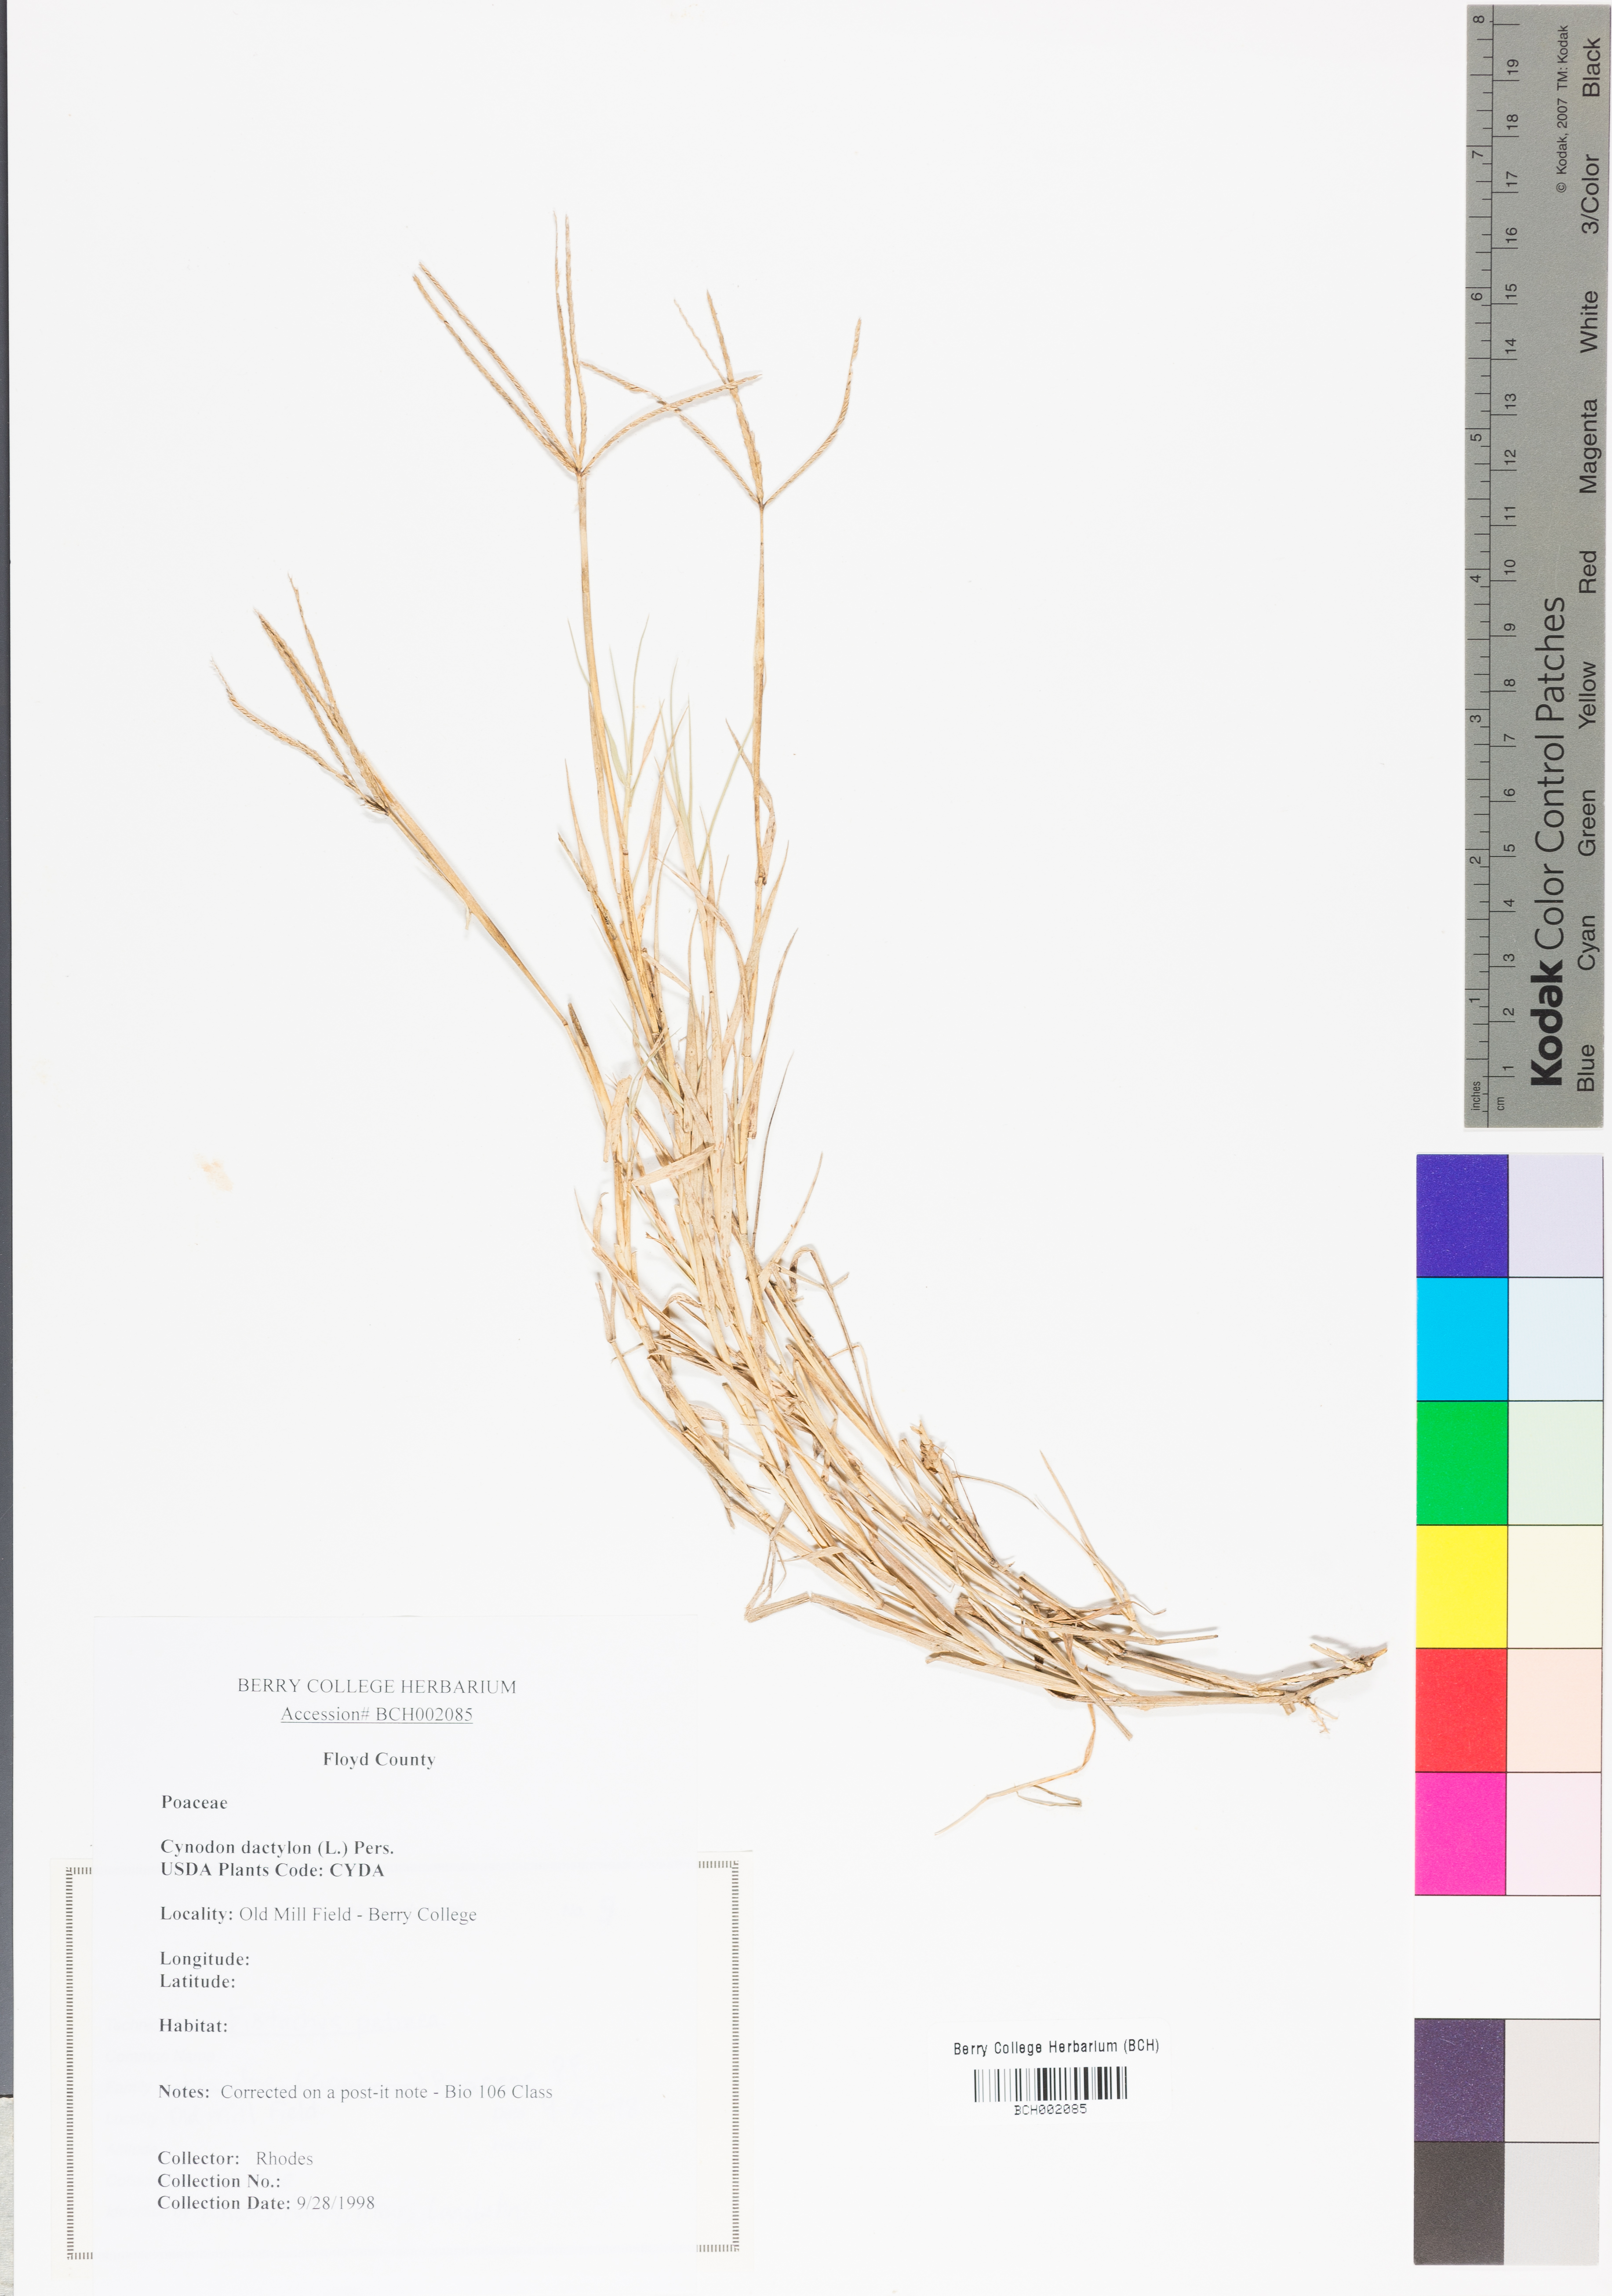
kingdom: Plantae
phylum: Tracheophyta
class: Liliopsida
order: Poales
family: Poaceae
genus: Cynodon
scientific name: Cynodon dactylon
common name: Bermuda grass
